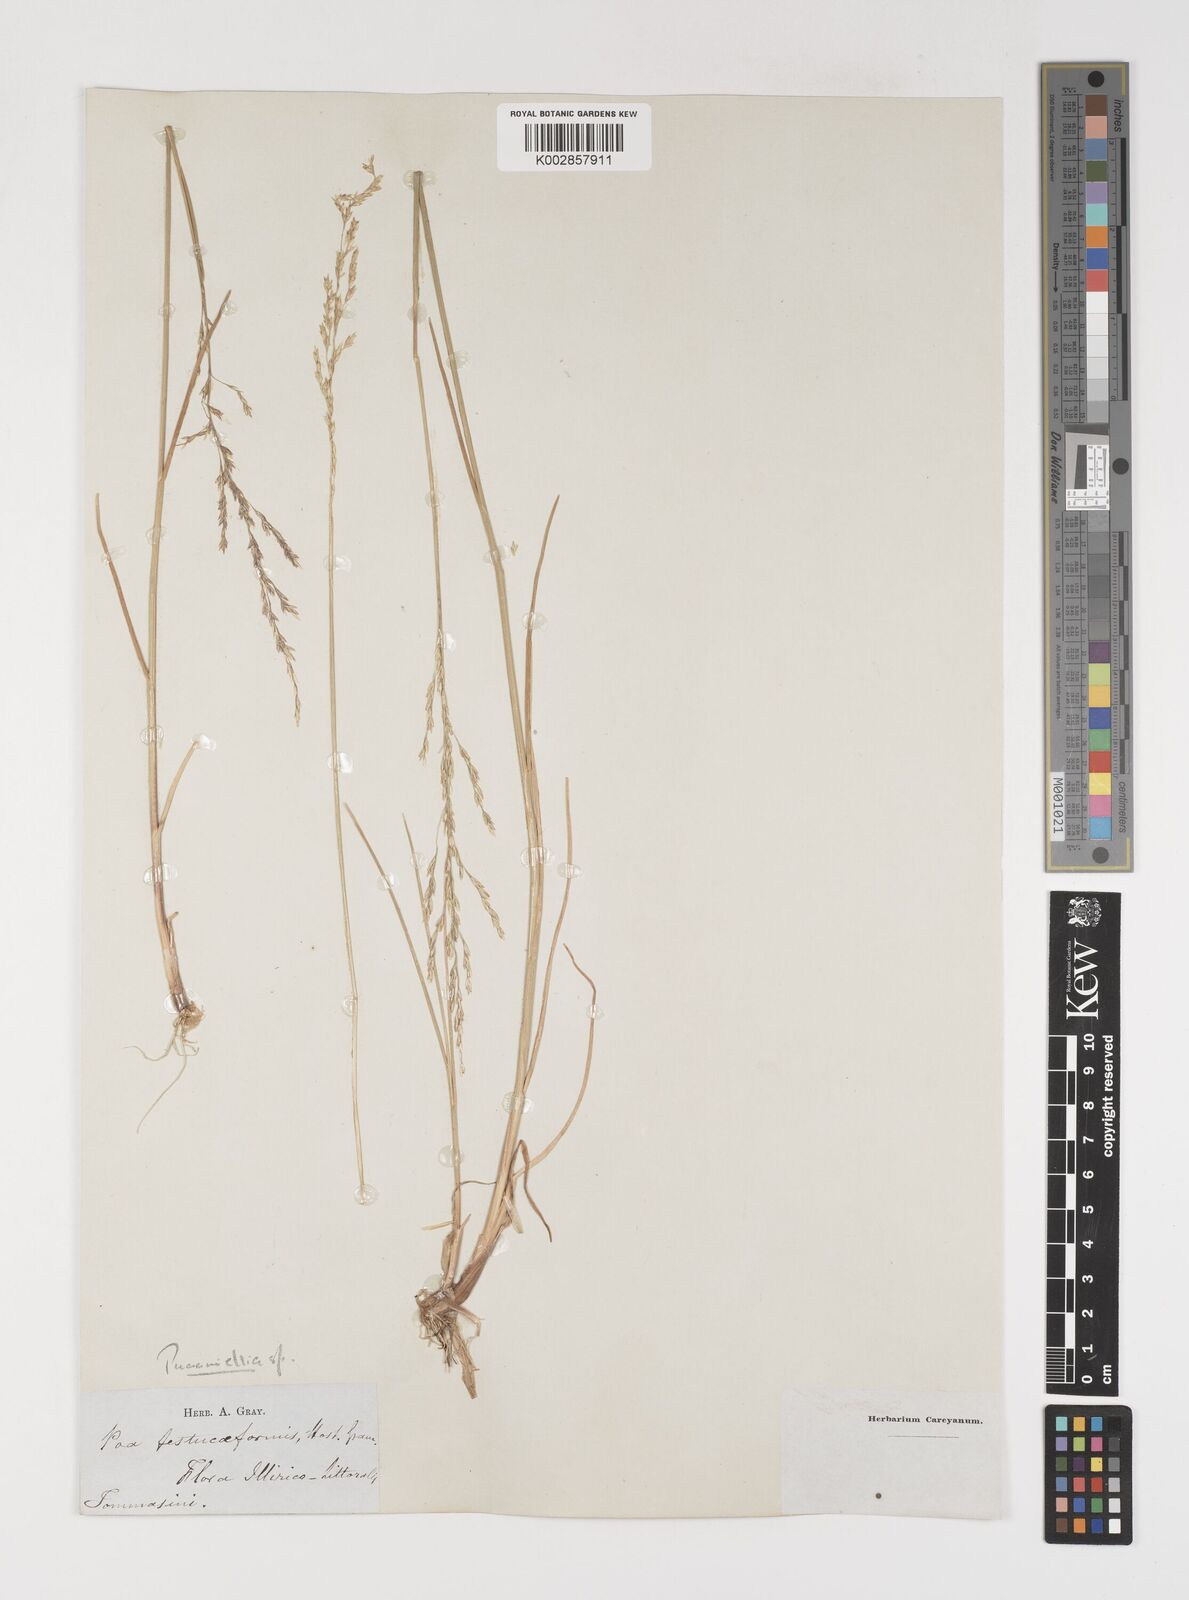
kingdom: Plantae
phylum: Tracheophyta
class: Liliopsida
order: Poales
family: Poaceae
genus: Puccinellia
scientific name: Puccinellia
